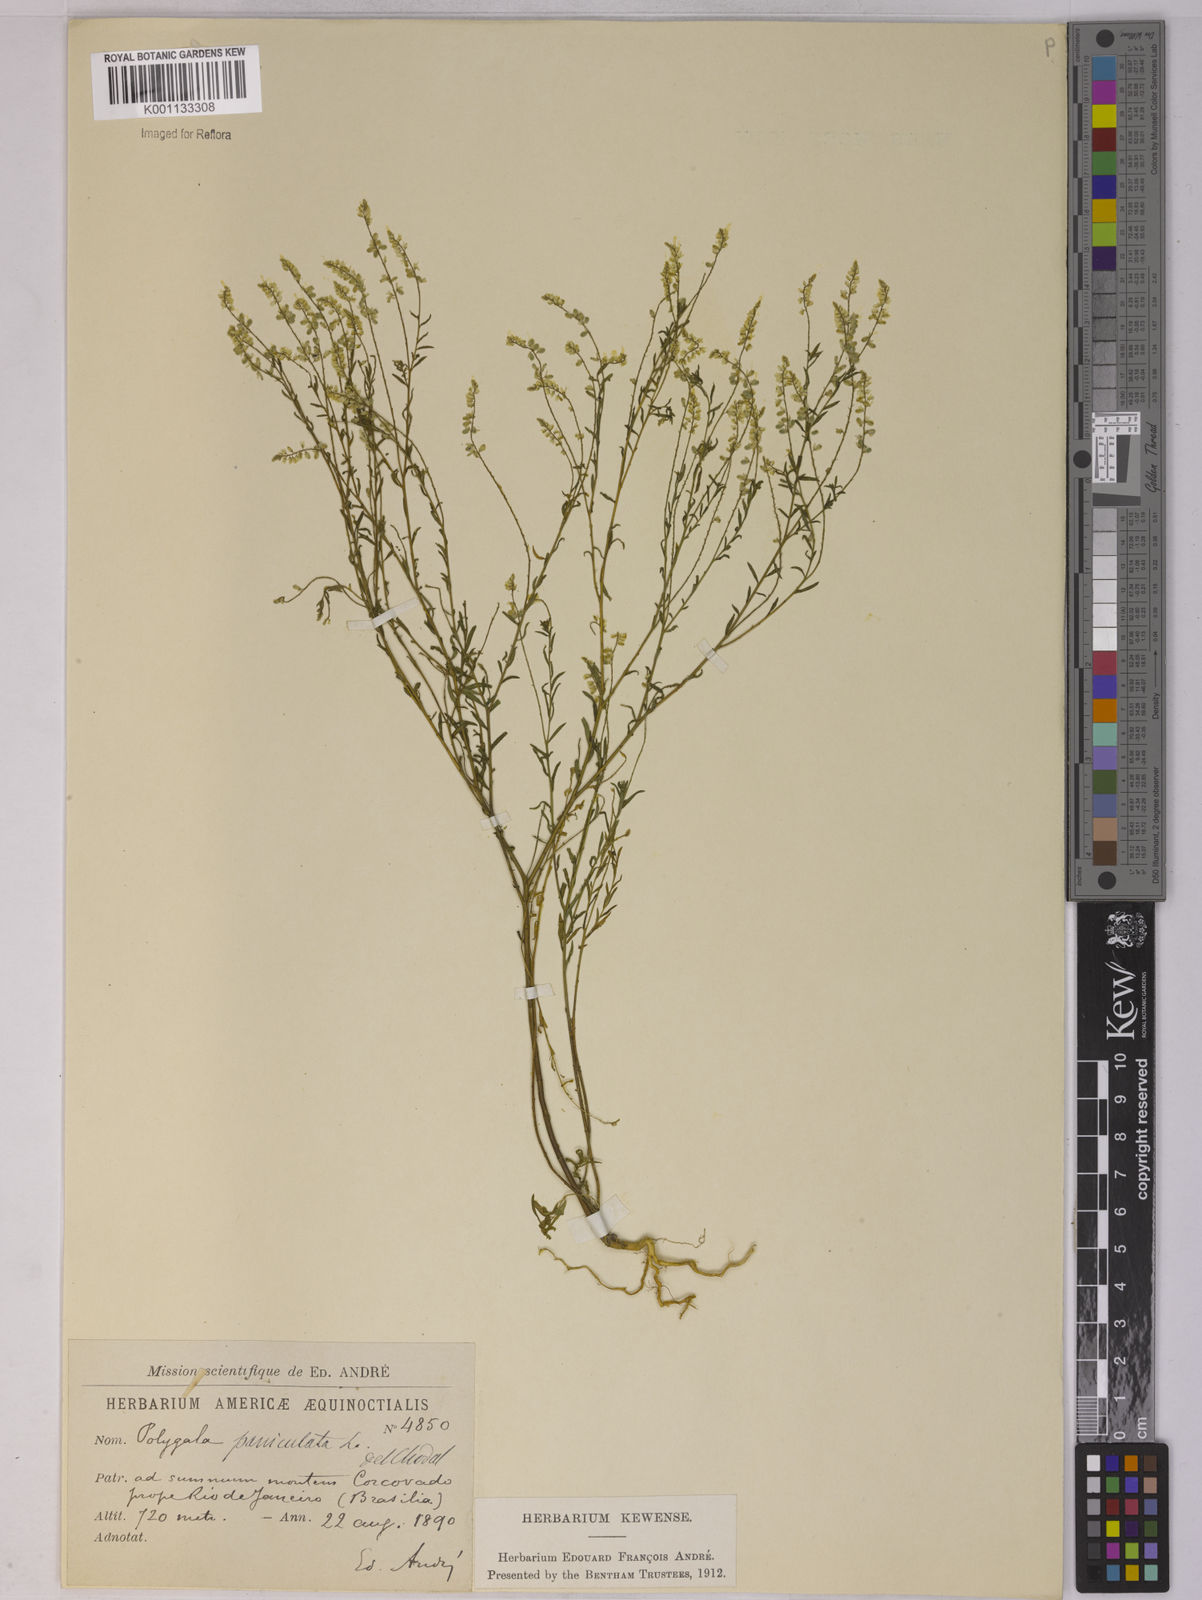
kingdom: Plantae
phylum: Tracheophyta
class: Magnoliopsida
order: Fabales
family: Polygalaceae
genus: Polygala
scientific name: Polygala paniculata
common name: Orosne
